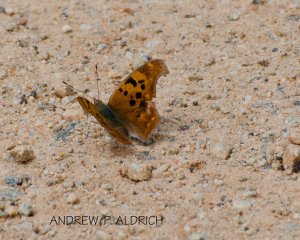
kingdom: Animalia
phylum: Arthropoda
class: Insecta
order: Lepidoptera
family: Nymphalidae
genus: Polygonia
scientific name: Polygonia interrogationis
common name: Question Mark
